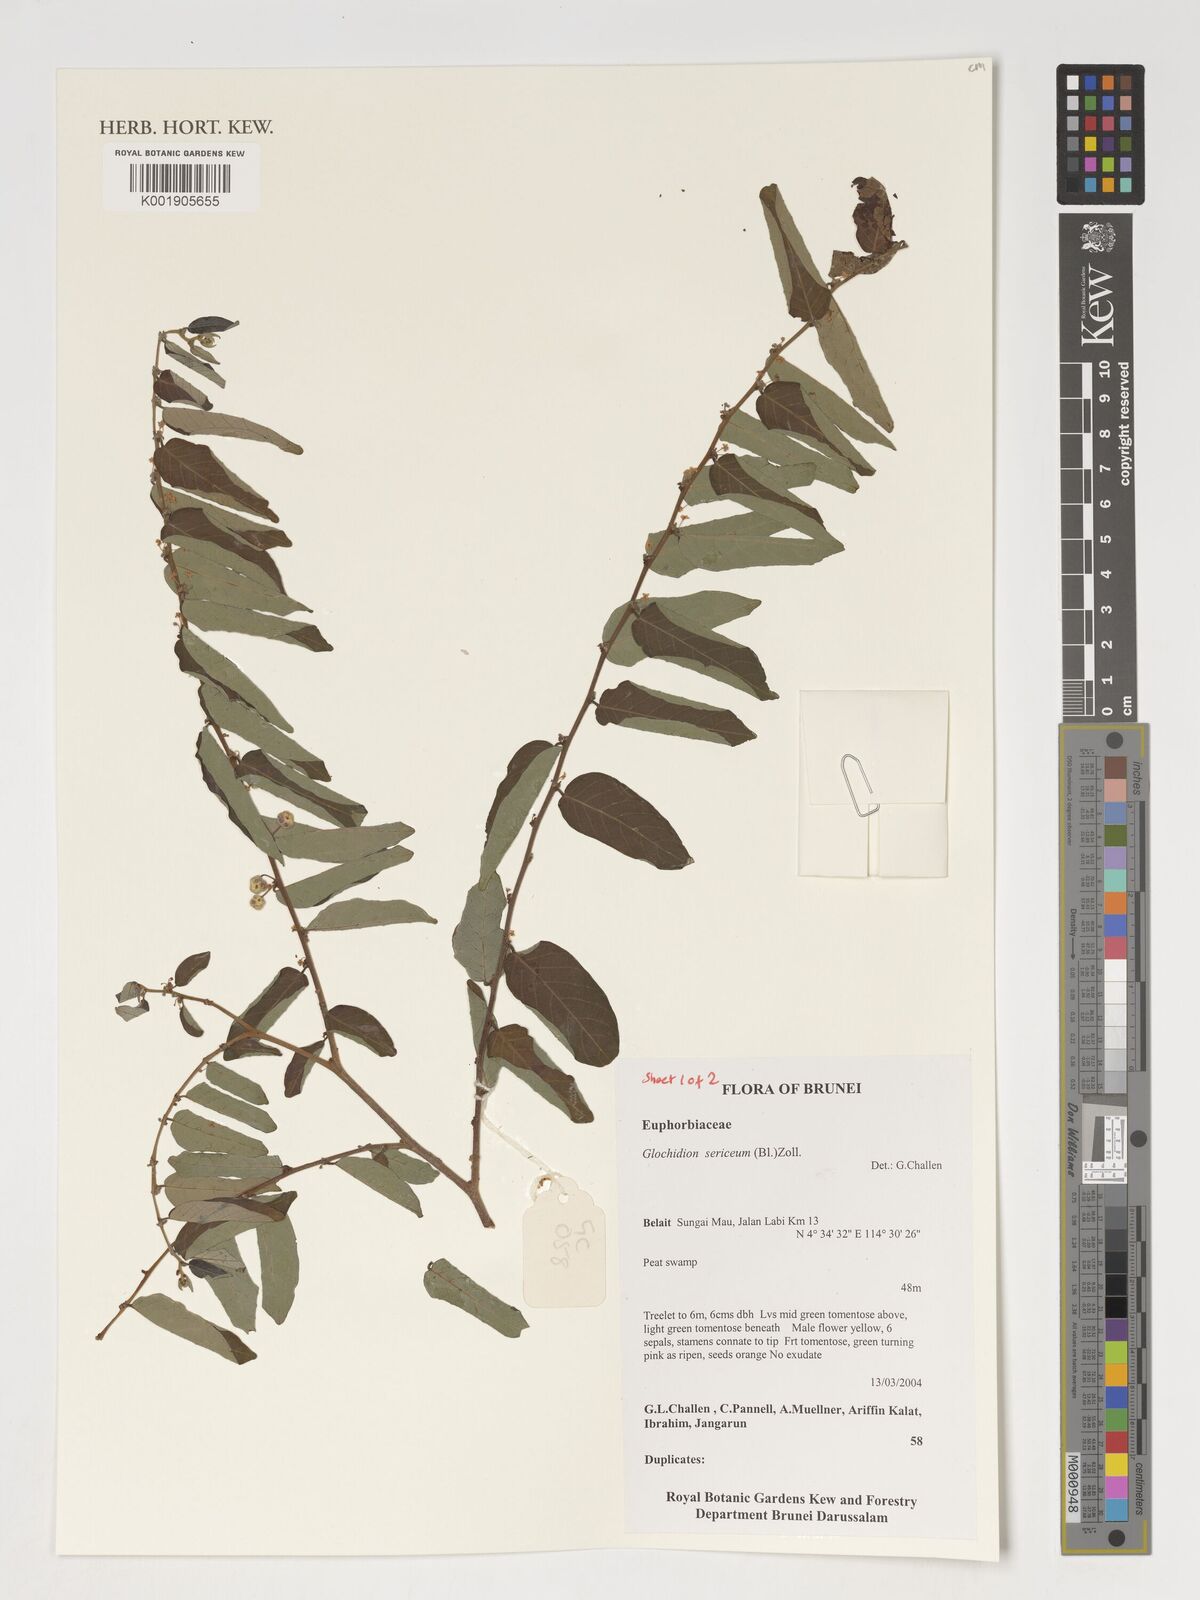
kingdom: Plantae
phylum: Tracheophyta
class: Magnoliopsida
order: Malpighiales
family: Phyllanthaceae
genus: Glochidion
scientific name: Glochidion sericeum
